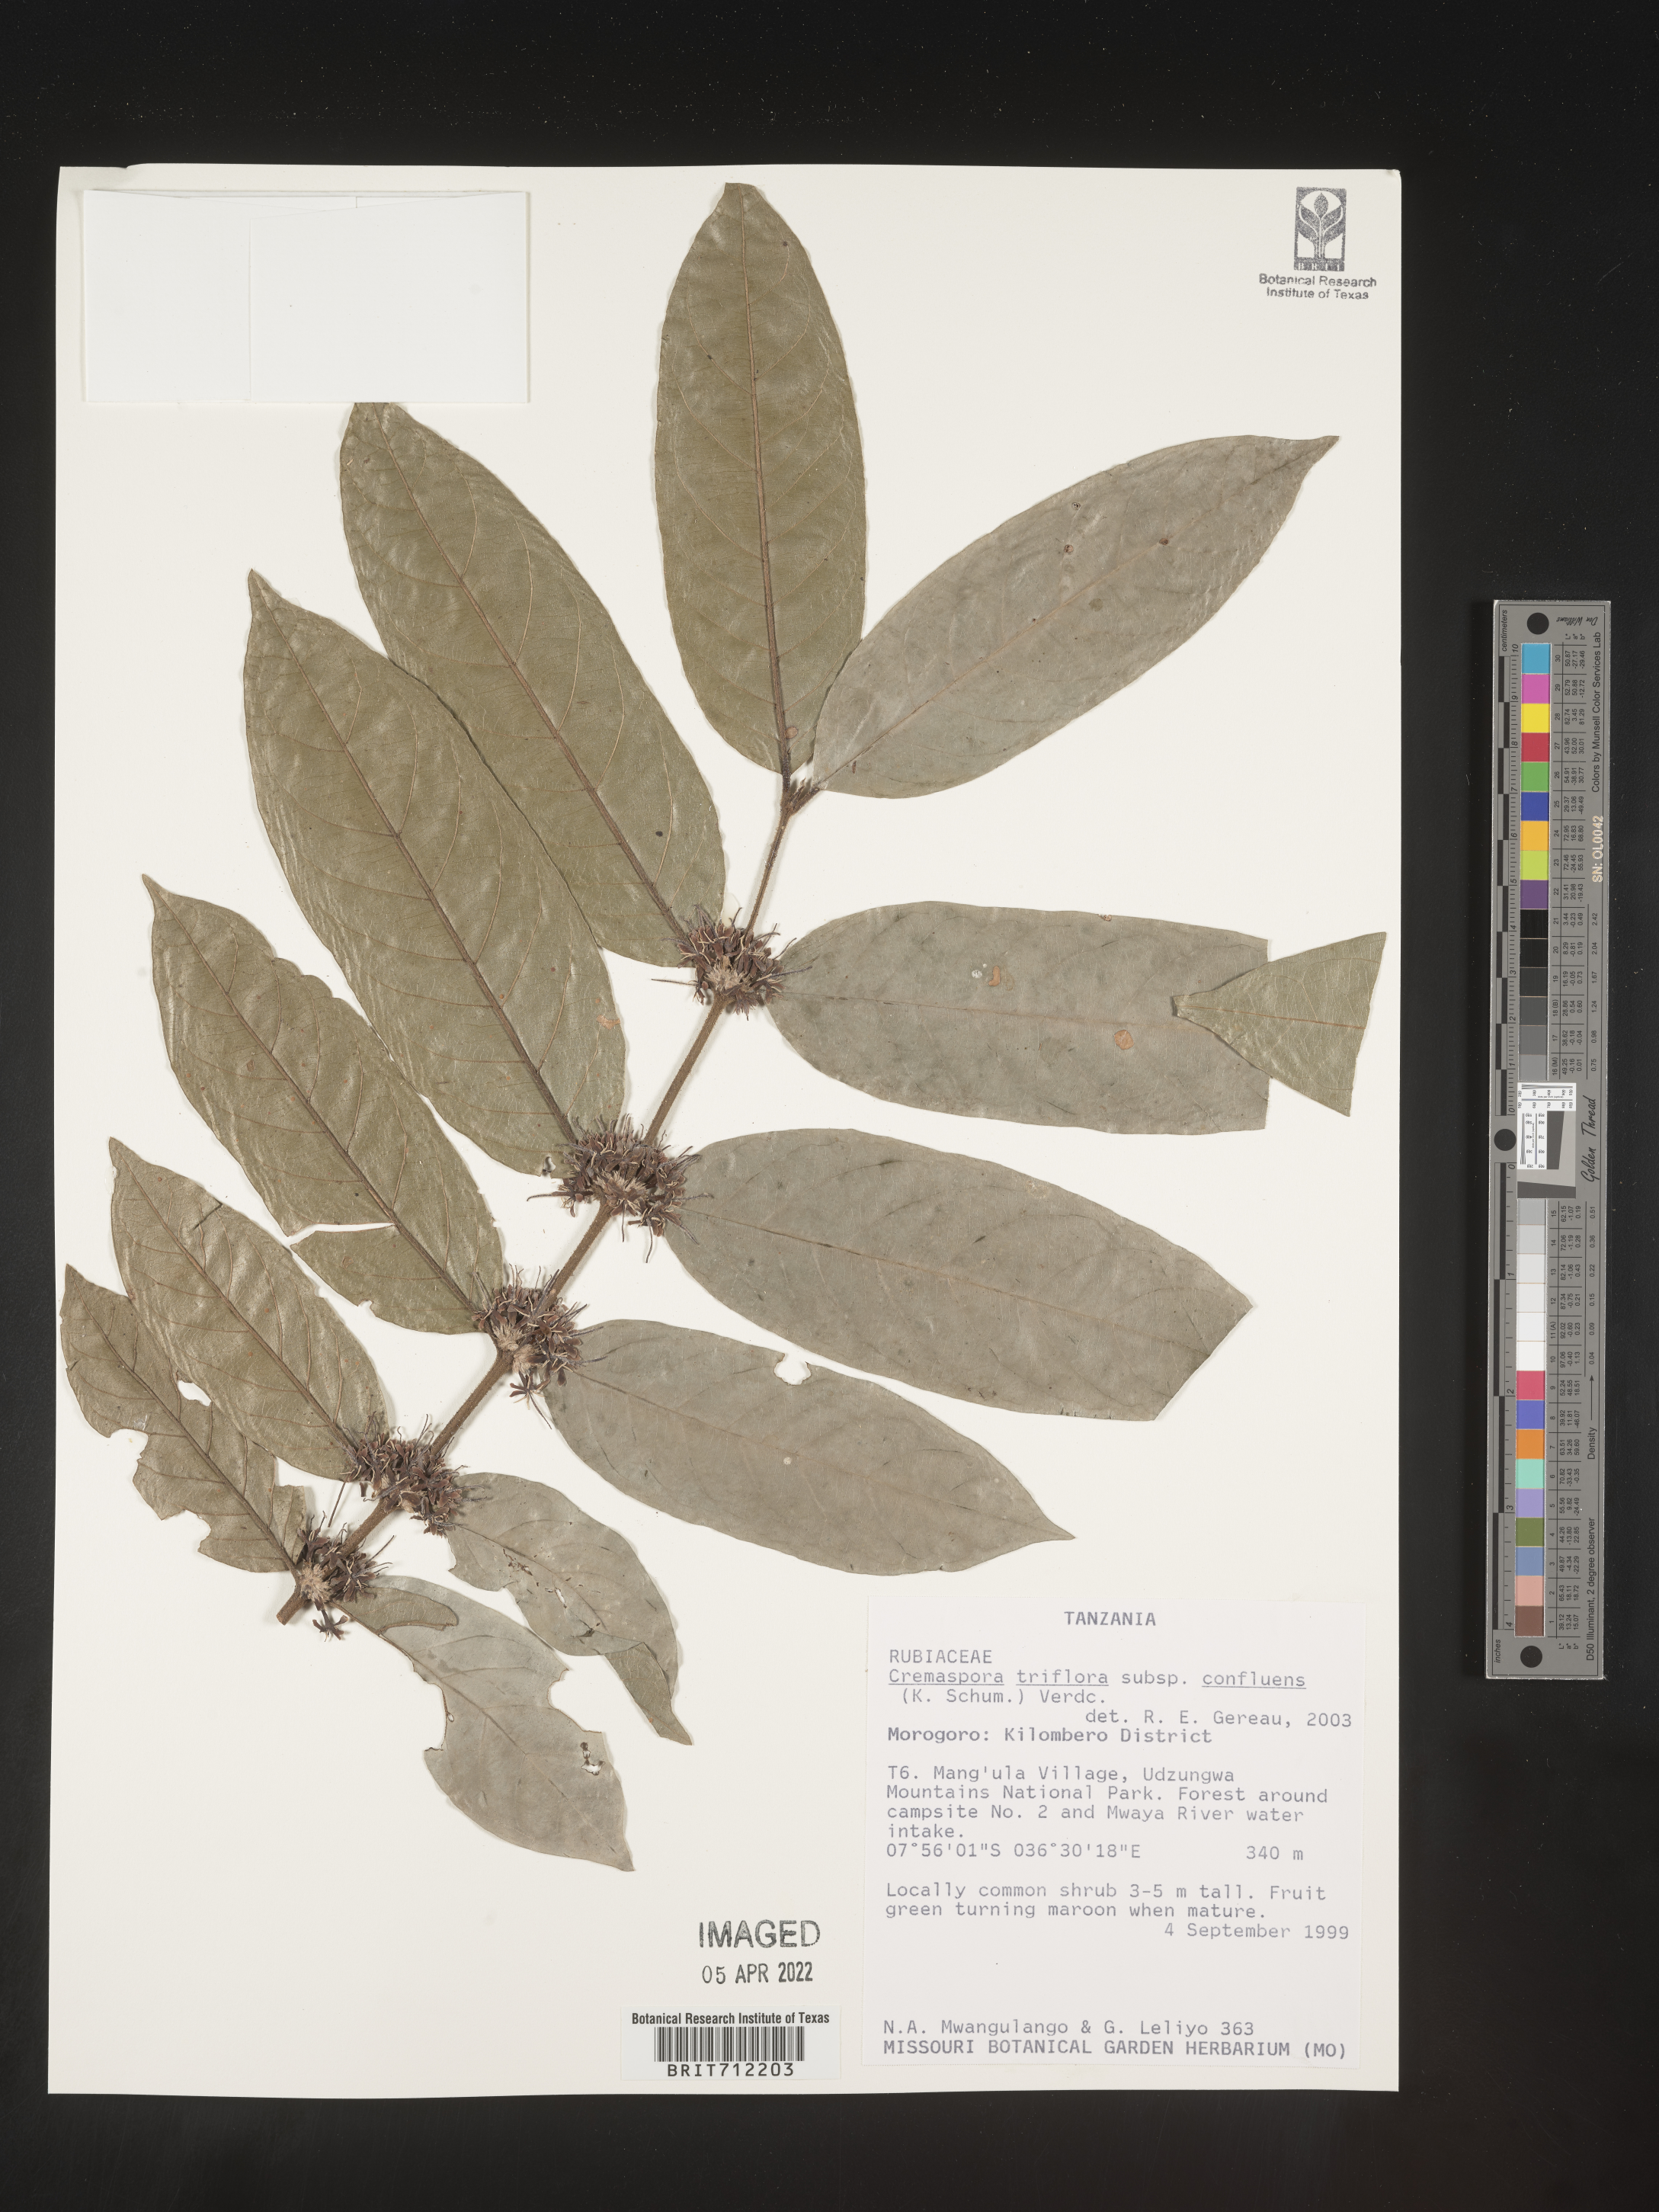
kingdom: Plantae
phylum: Tracheophyta
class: Magnoliopsida
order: Gentianales
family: Rubiaceae
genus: Cremaspora
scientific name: Cremaspora
